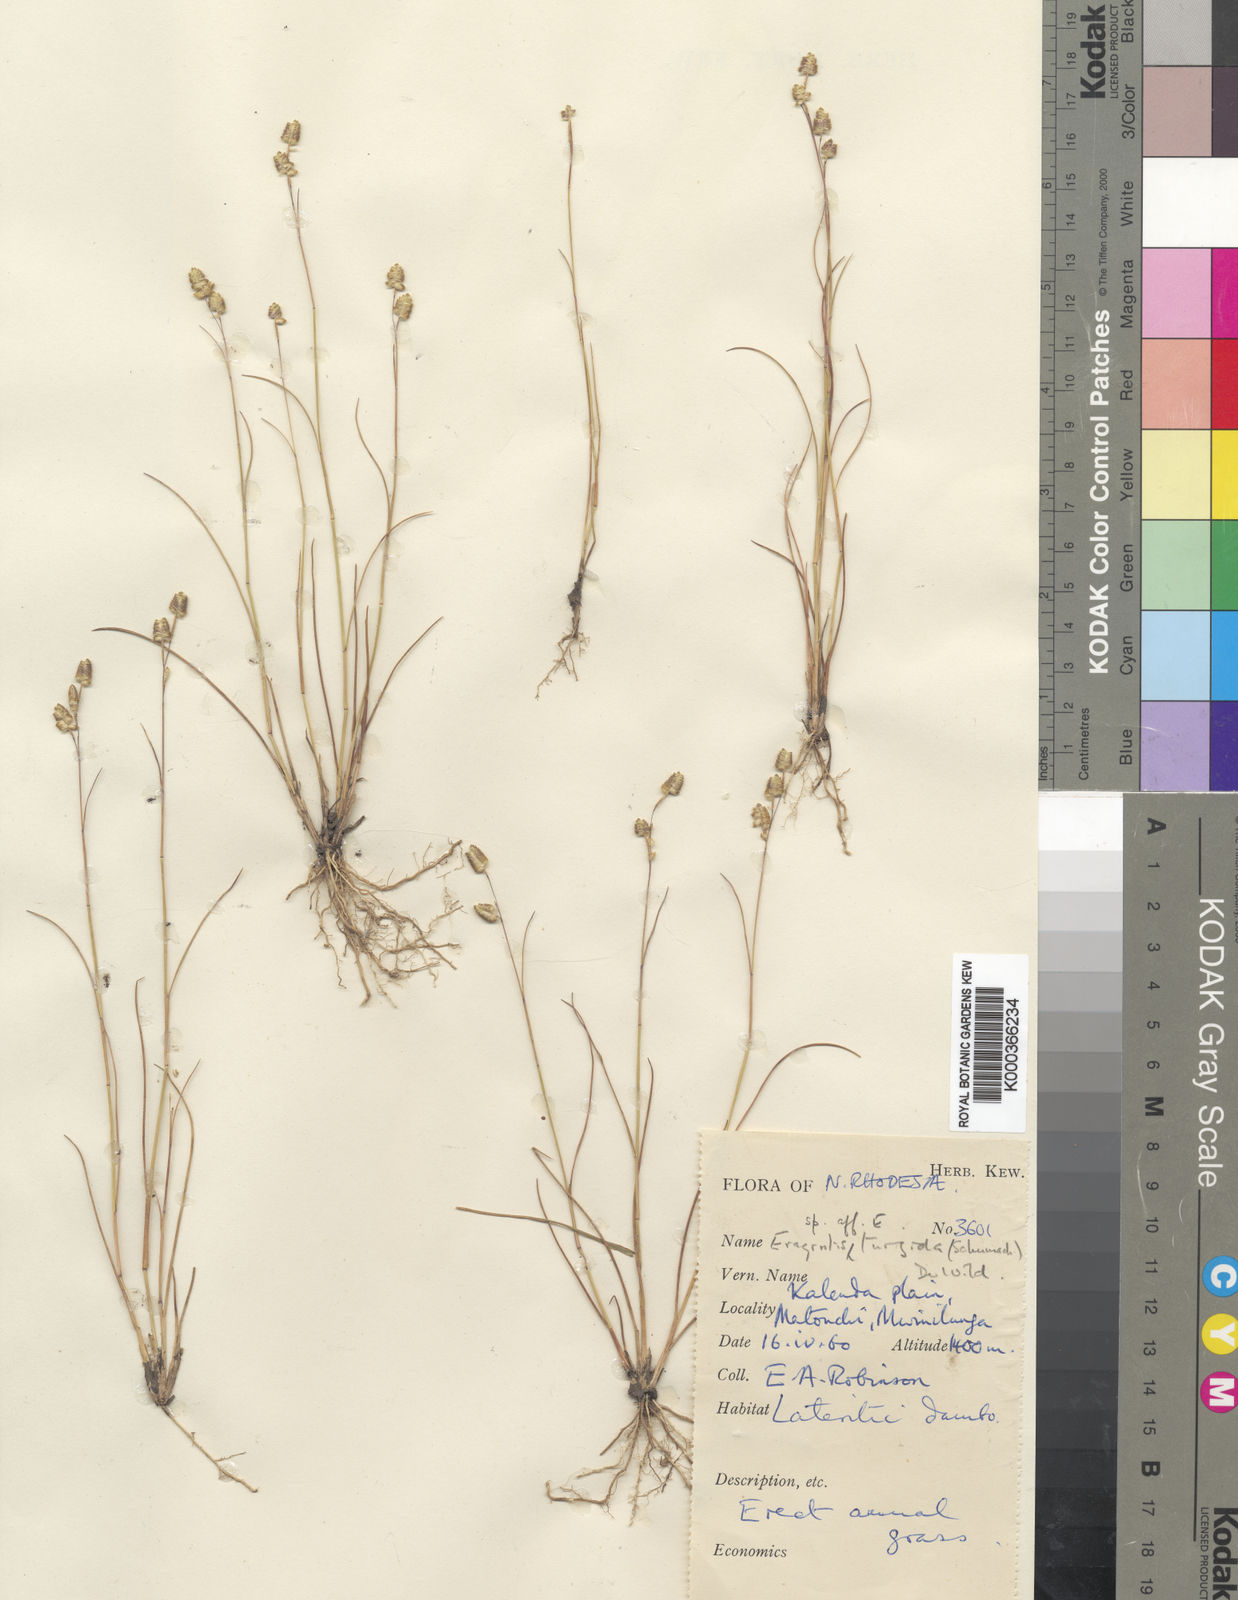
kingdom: Plantae
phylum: Tracheophyta
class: Liliopsida
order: Poales
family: Poaceae
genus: Eragrostis
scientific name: Eragrostis oligostachya
